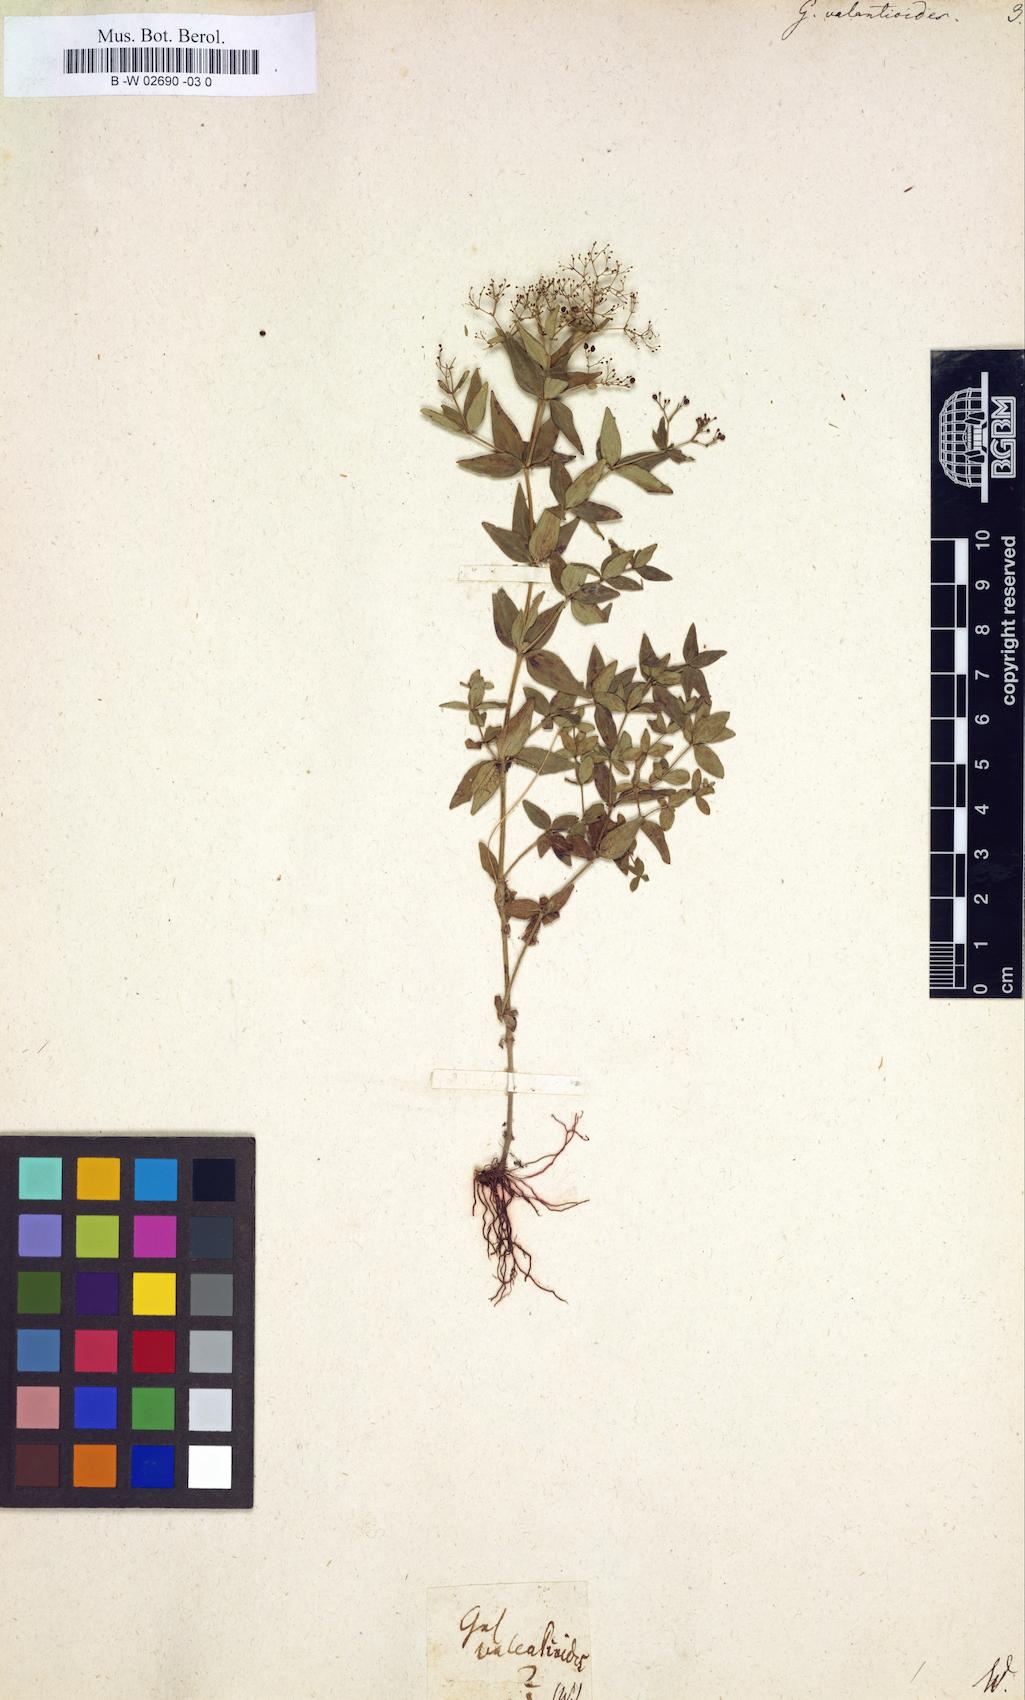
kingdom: Plantae
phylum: Tracheophyta
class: Magnoliopsida
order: Gentianales
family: Rubiaceae
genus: Galium
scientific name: Galium valantioides
